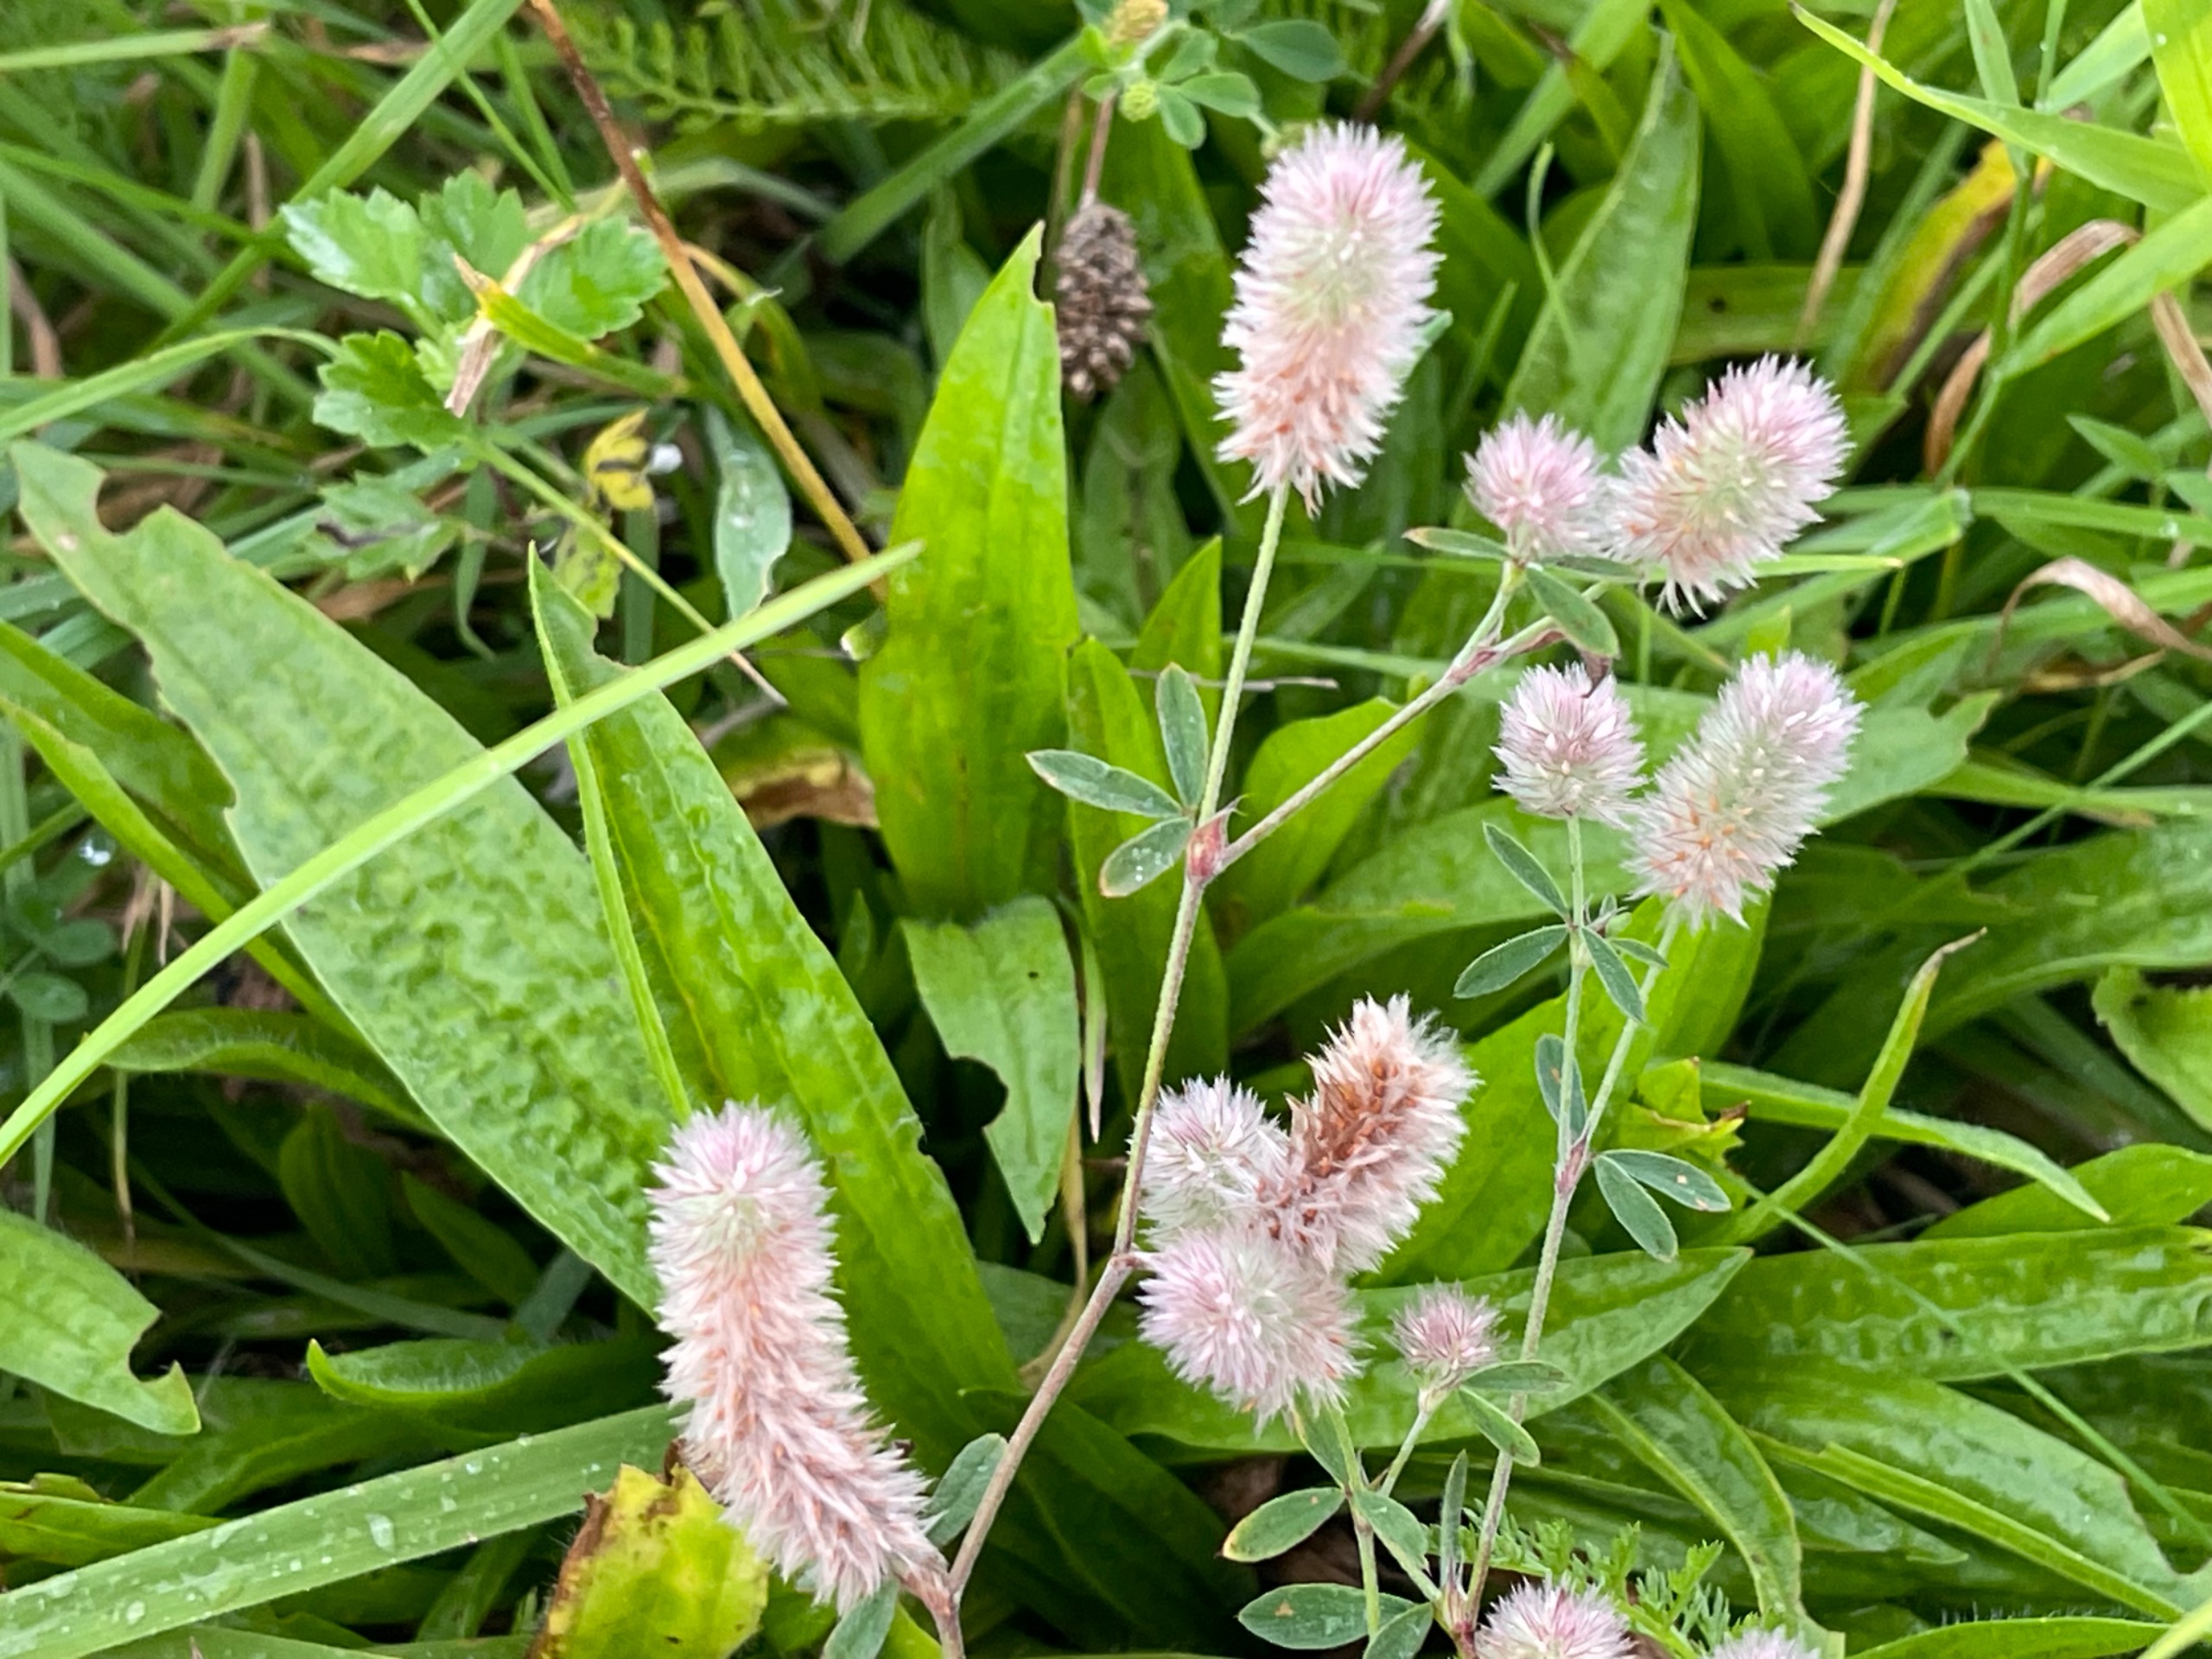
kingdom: Plantae
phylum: Tracheophyta
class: Magnoliopsida
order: Fabales
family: Fabaceae
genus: Trifolium
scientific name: Trifolium arvense
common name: Hare-kløver
